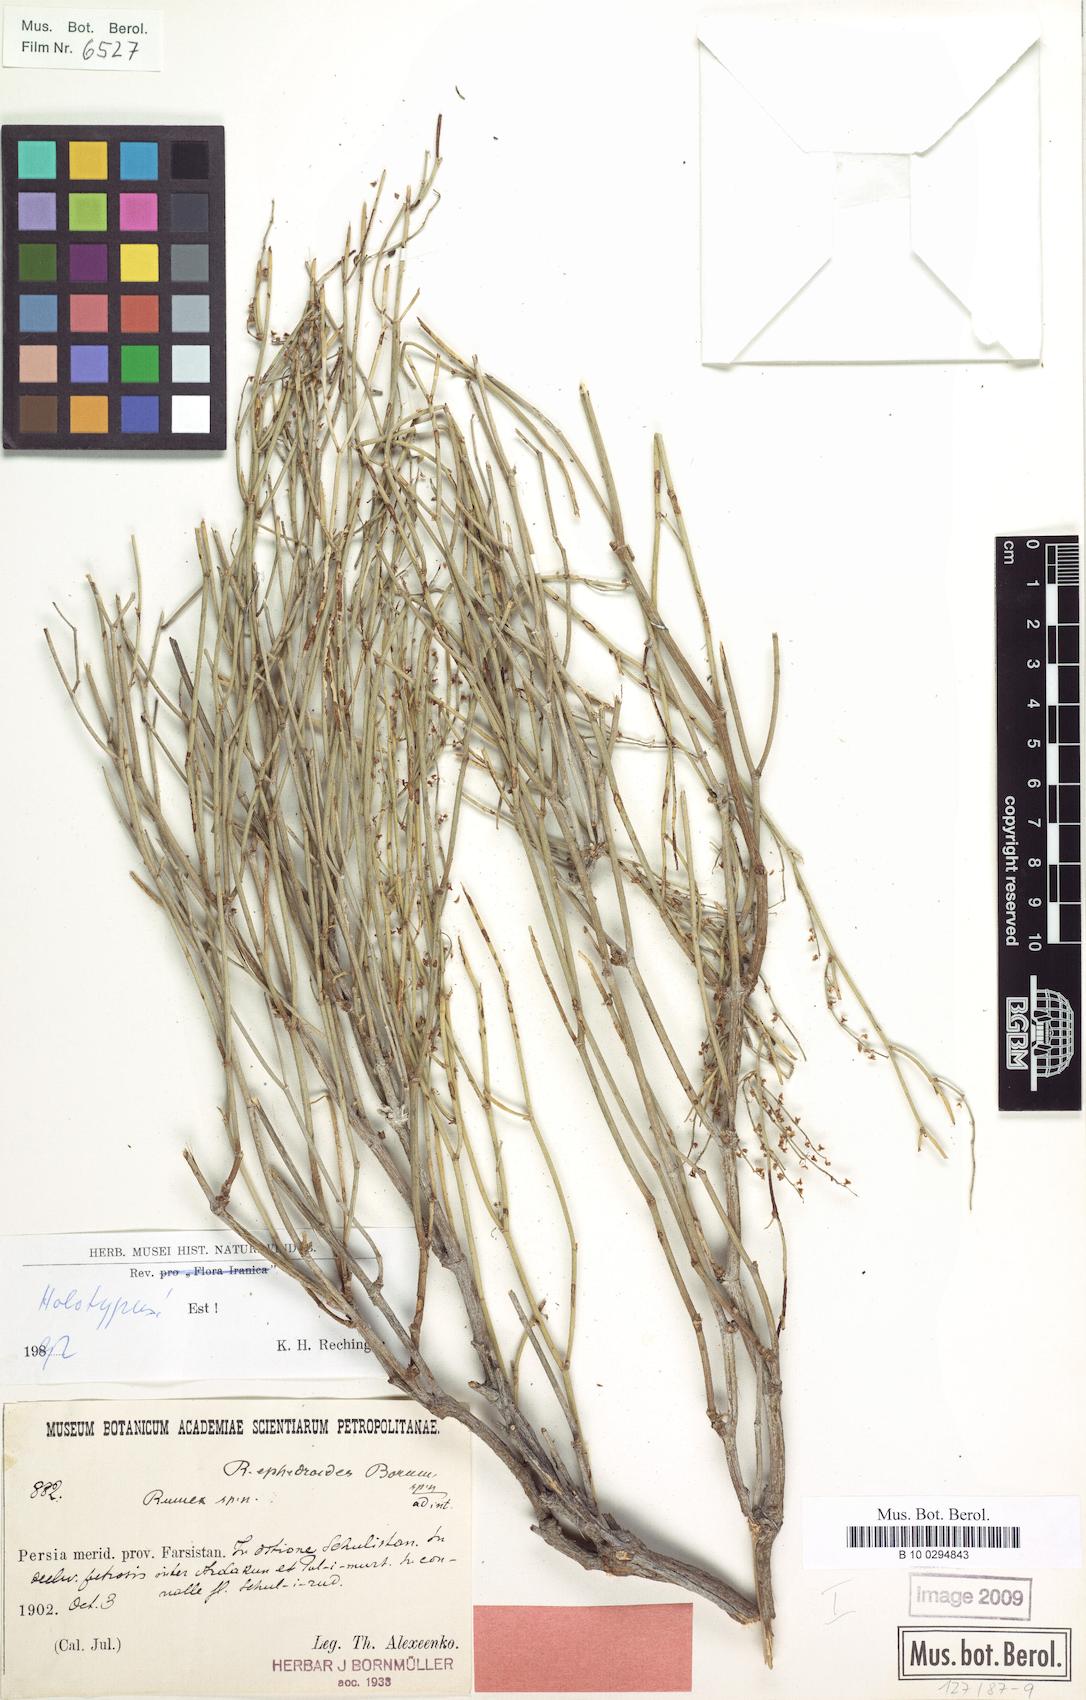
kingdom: Plantae
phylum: Tracheophyta
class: Magnoliopsida
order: Caryophyllales
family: Polygonaceae
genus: Rumex
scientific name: Rumex ephedroides
